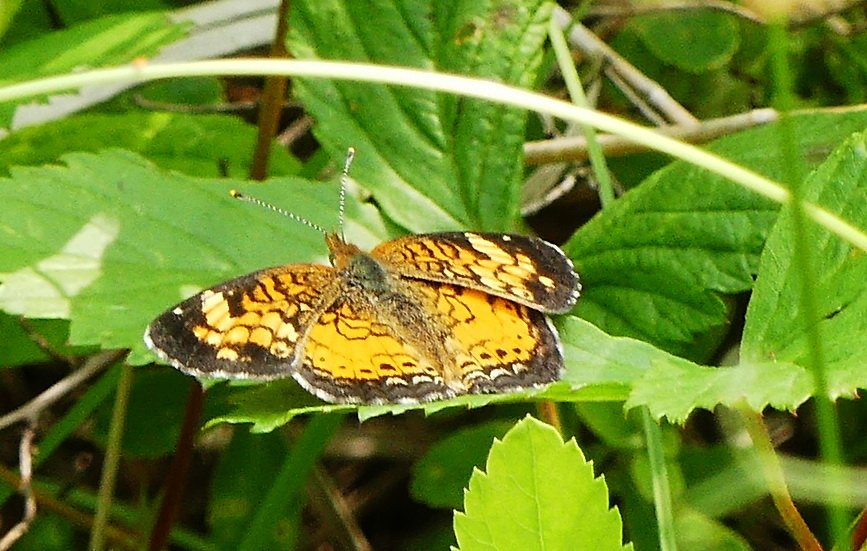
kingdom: Animalia
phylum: Arthropoda
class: Insecta
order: Lepidoptera
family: Nymphalidae
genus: Phyciodes
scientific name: Phyciodes tharos
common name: Northern Crescent
